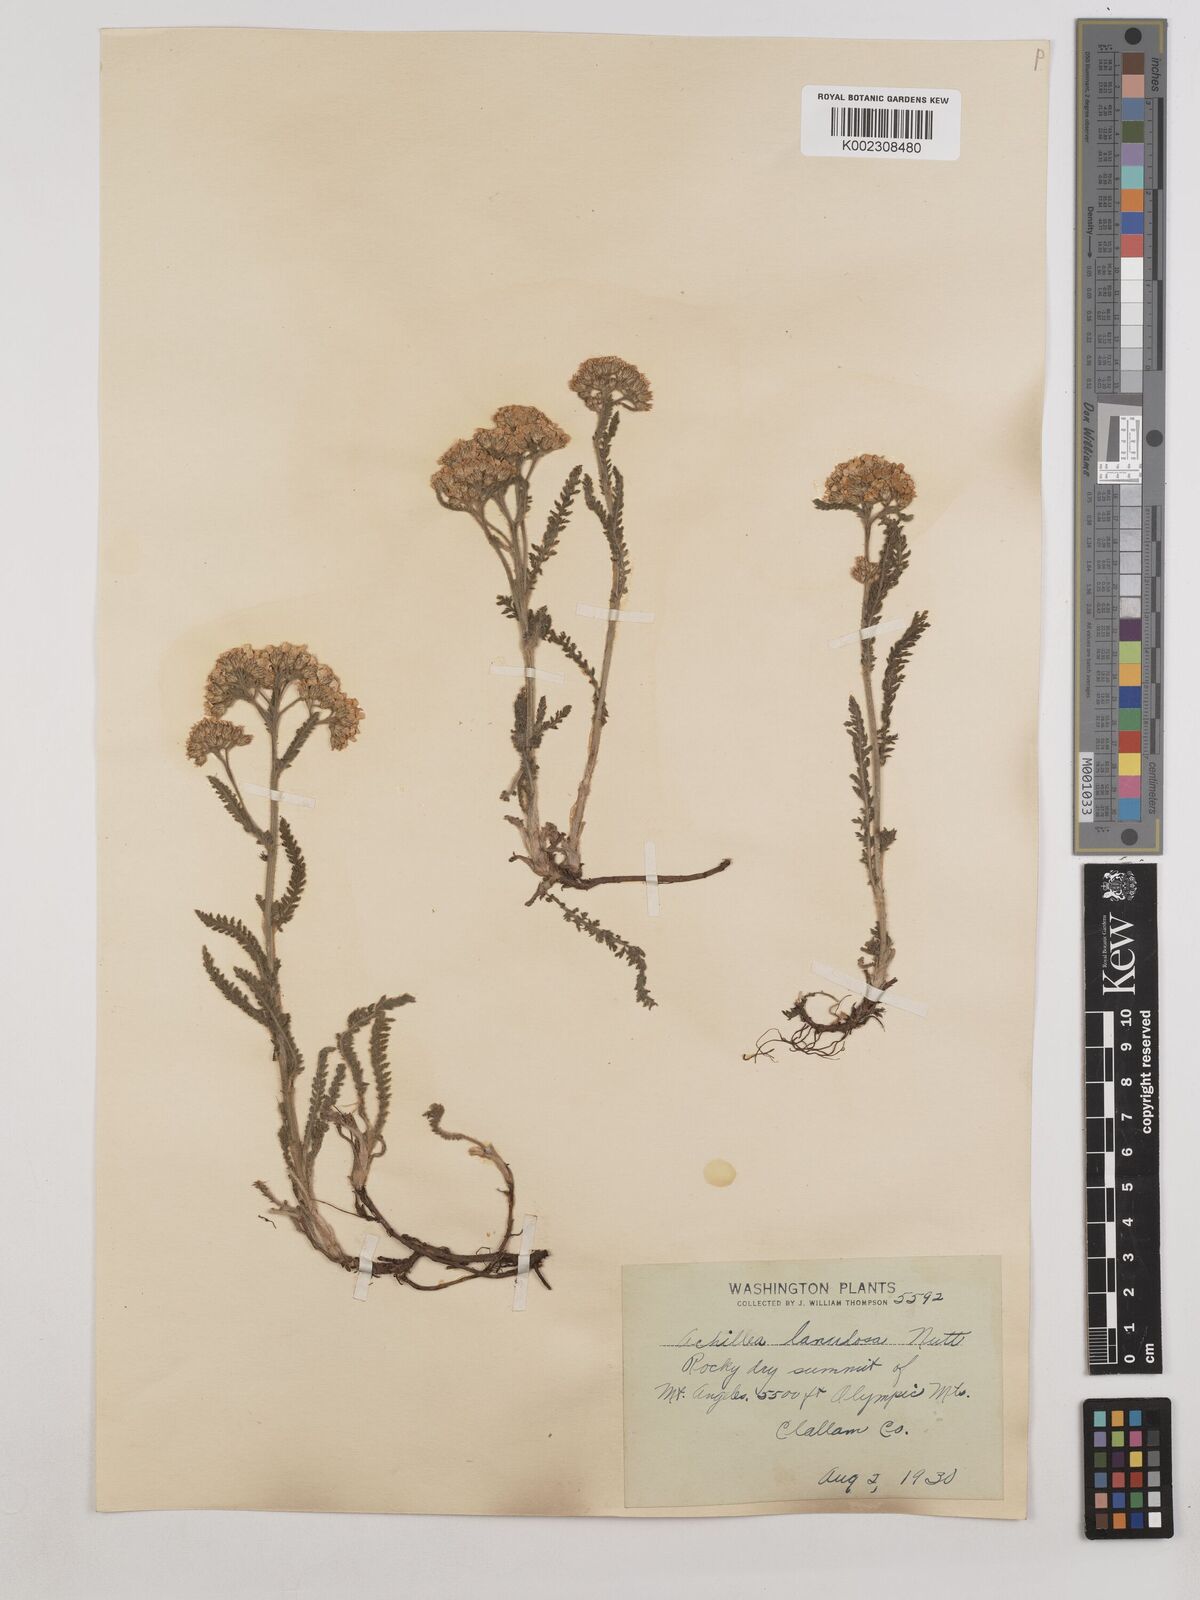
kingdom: Plantae
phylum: Tracheophyta
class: Magnoliopsida
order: Asterales
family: Asteraceae
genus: Achillea
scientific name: Achillea millefolium
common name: Yarrow
